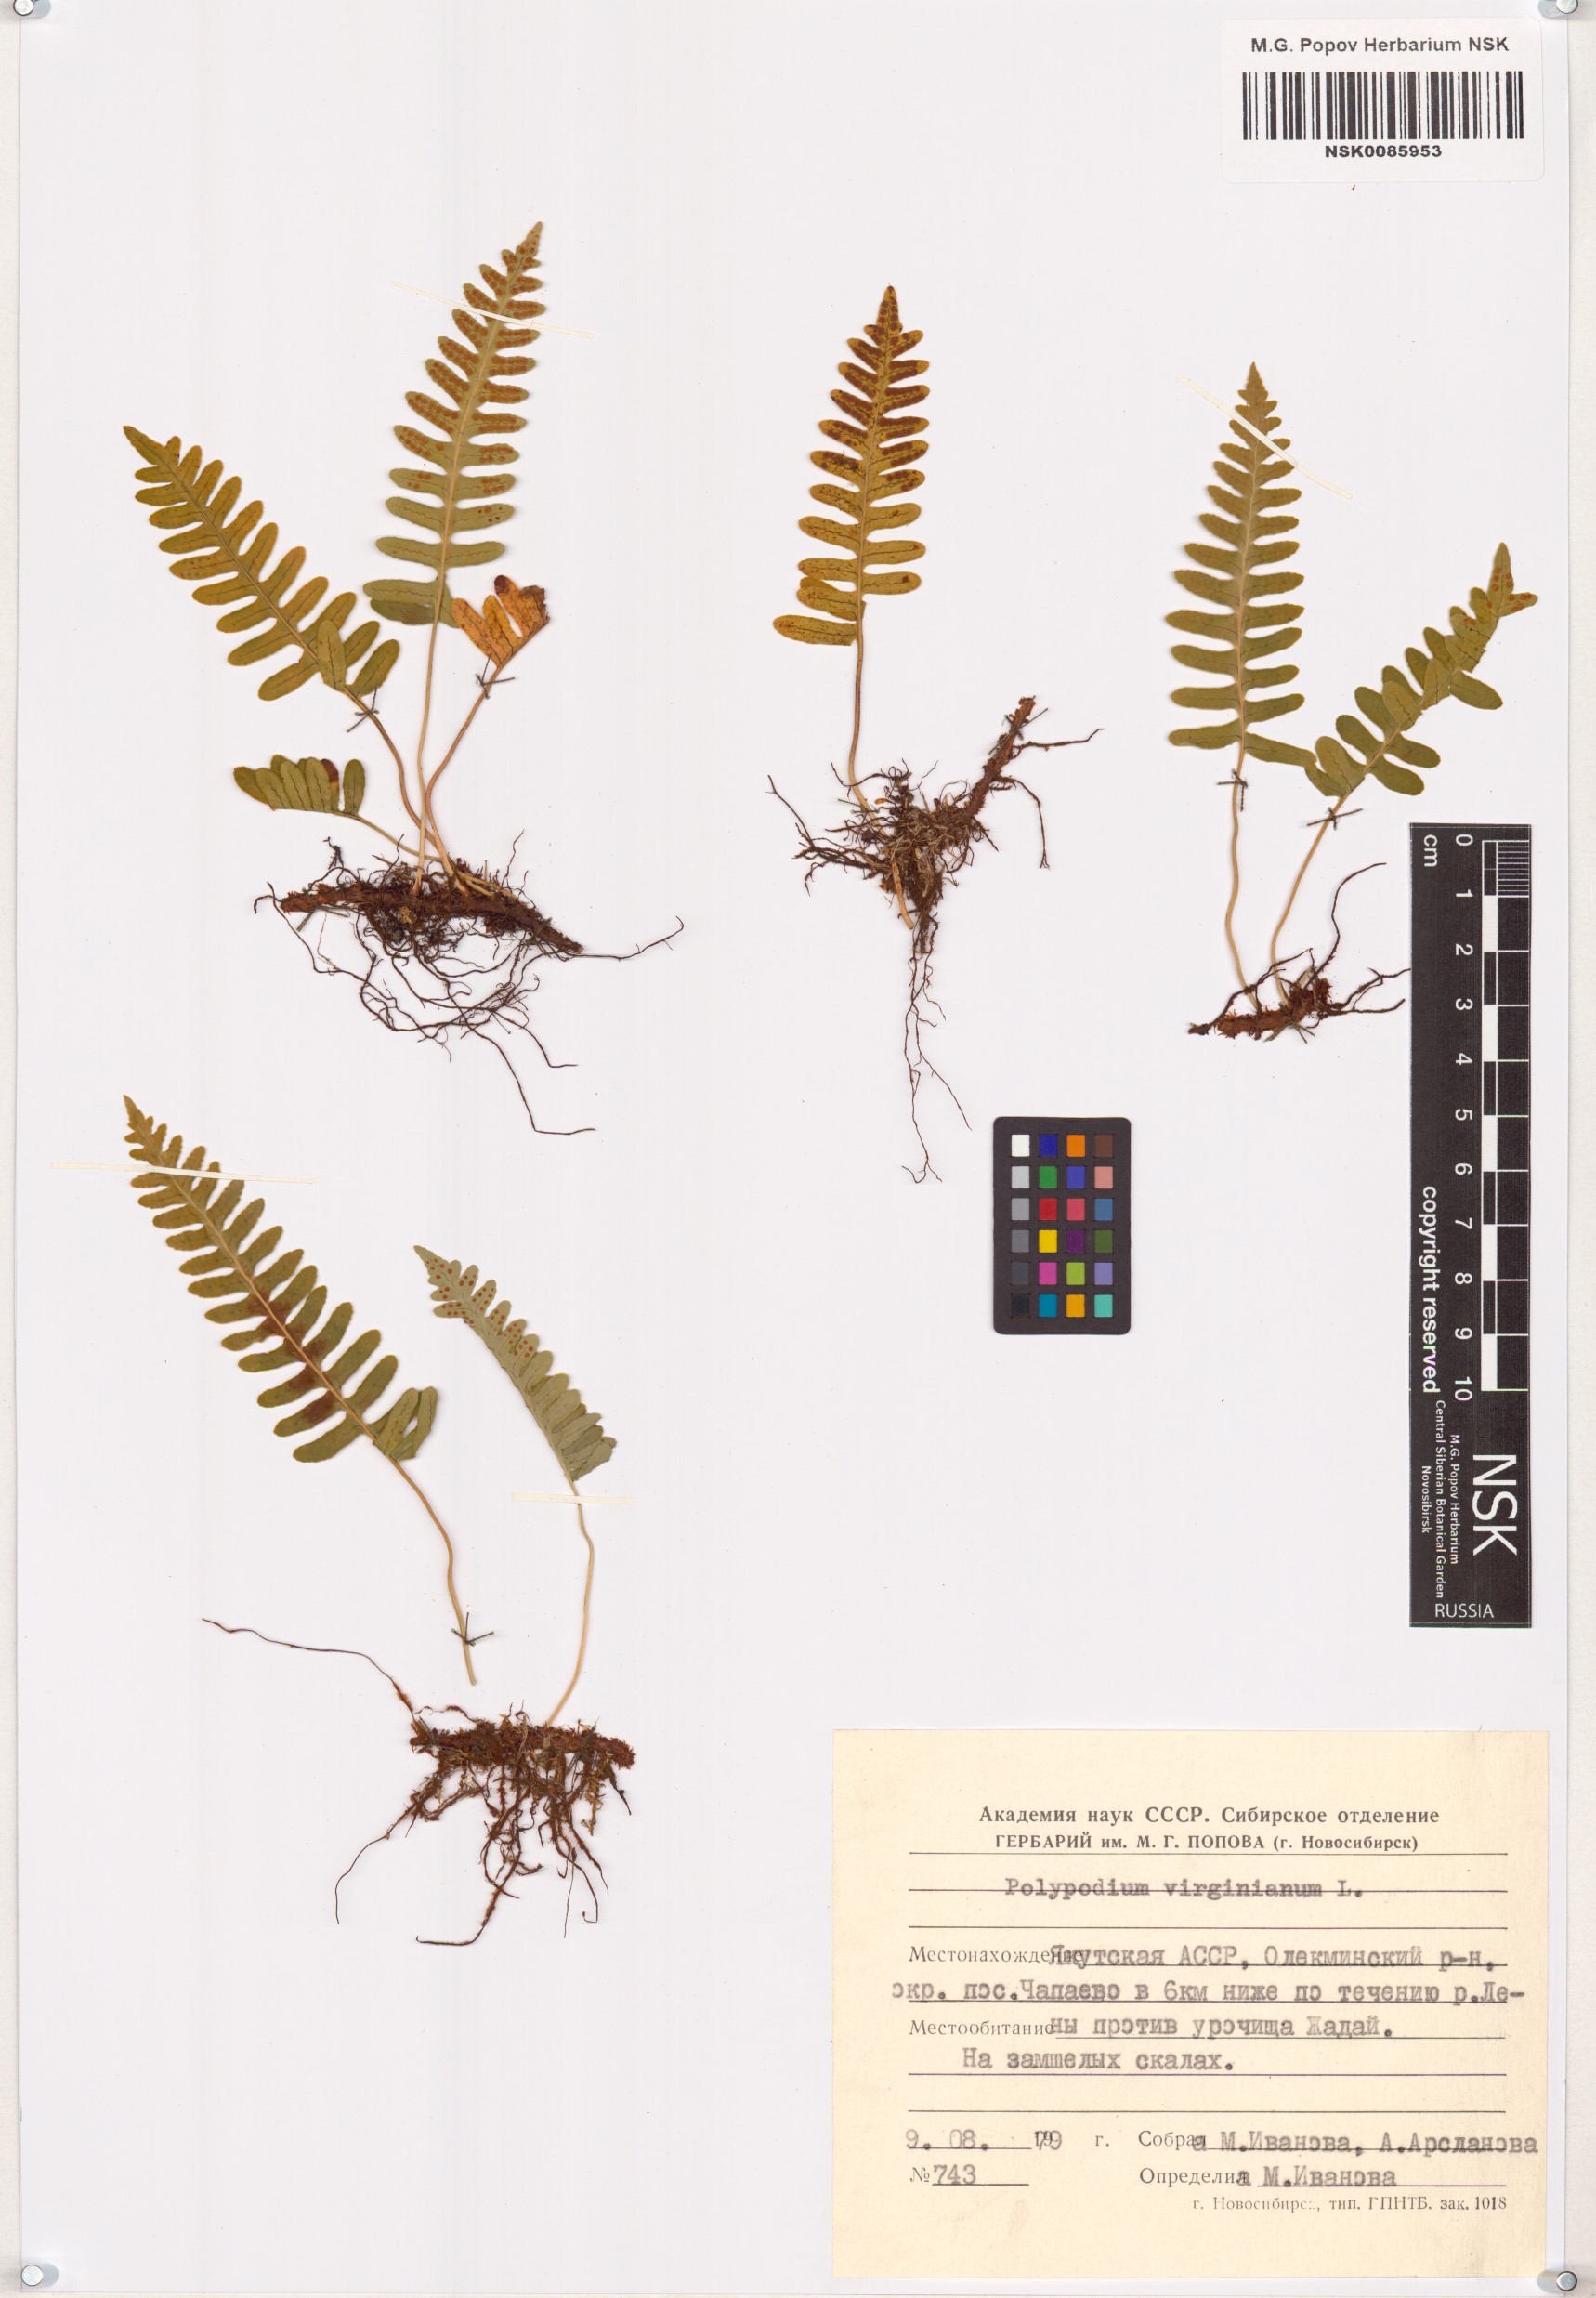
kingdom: Plantae
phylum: Tracheophyta
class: Polypodiopsida
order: Polypodiales
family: Polypodiaceae
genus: Polypodium
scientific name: Polypodium virginianum
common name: American wall fern
